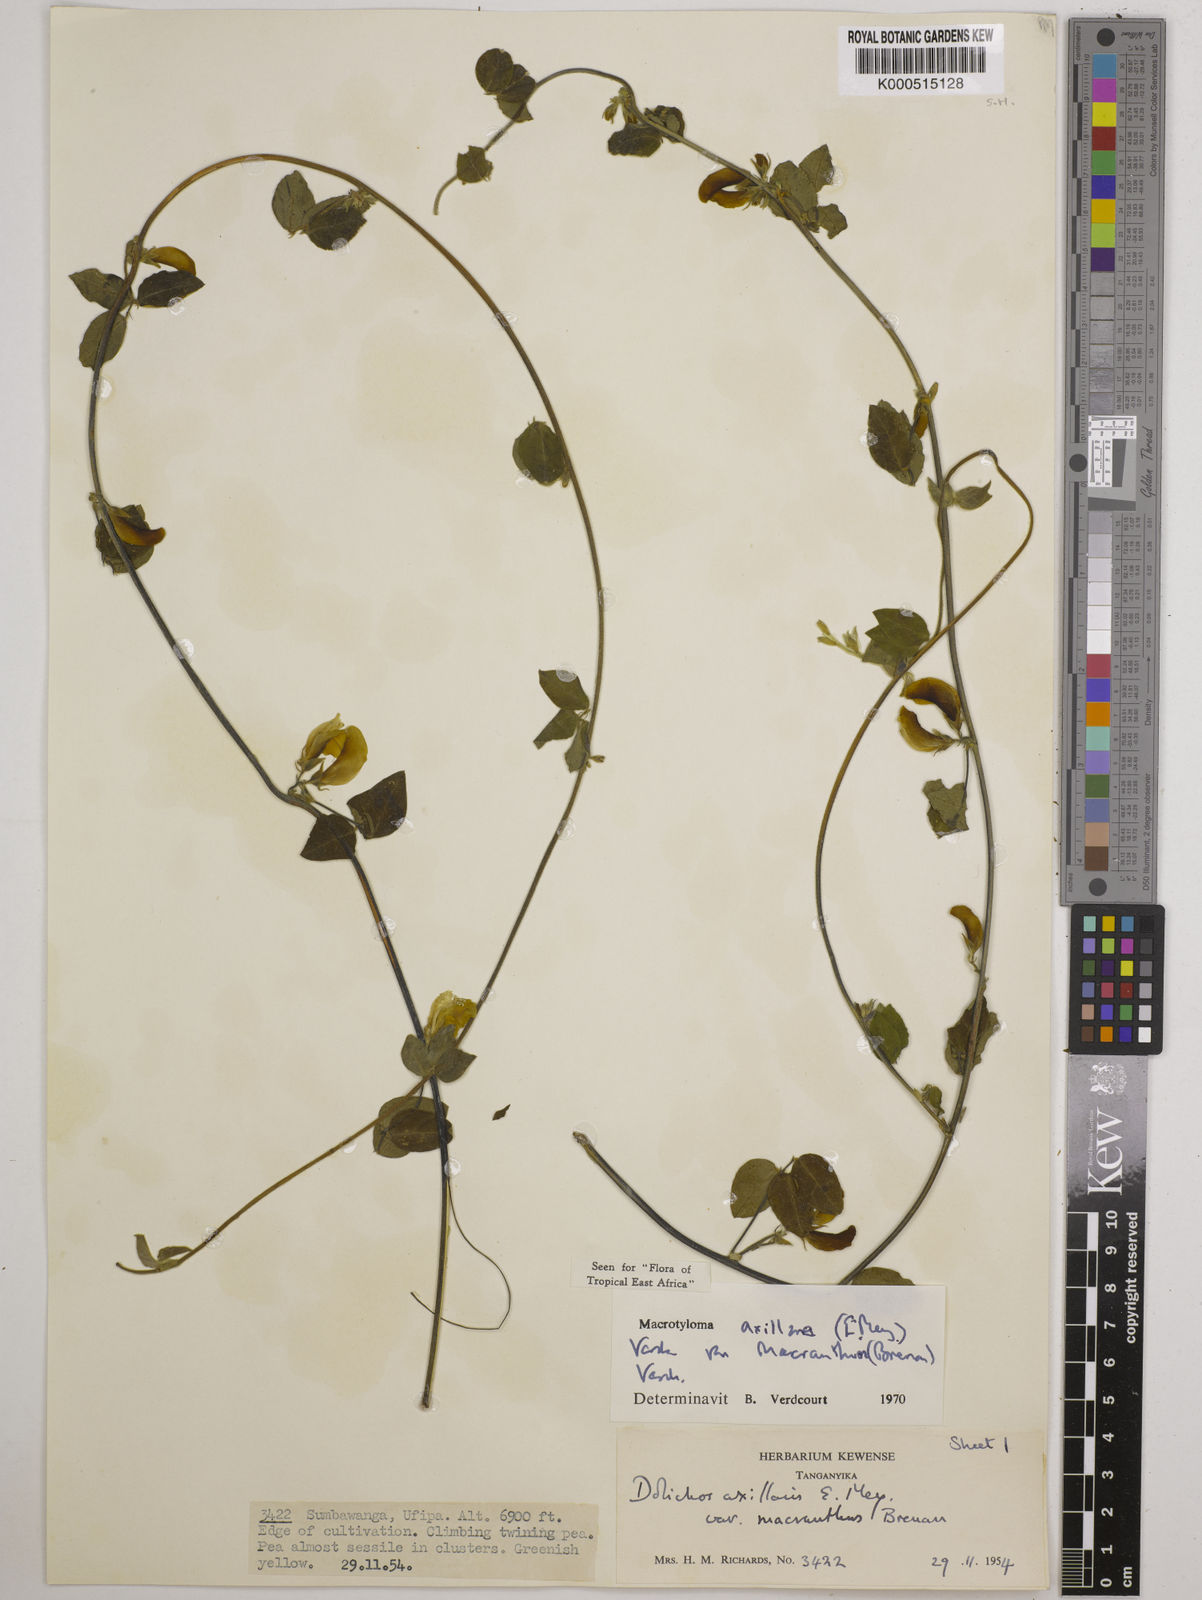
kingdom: Plantae
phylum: Tracheophyta
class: Magnoliopsida
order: Fabales
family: Fabaceae
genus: Macrotyloma
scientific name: Macrotyloma
